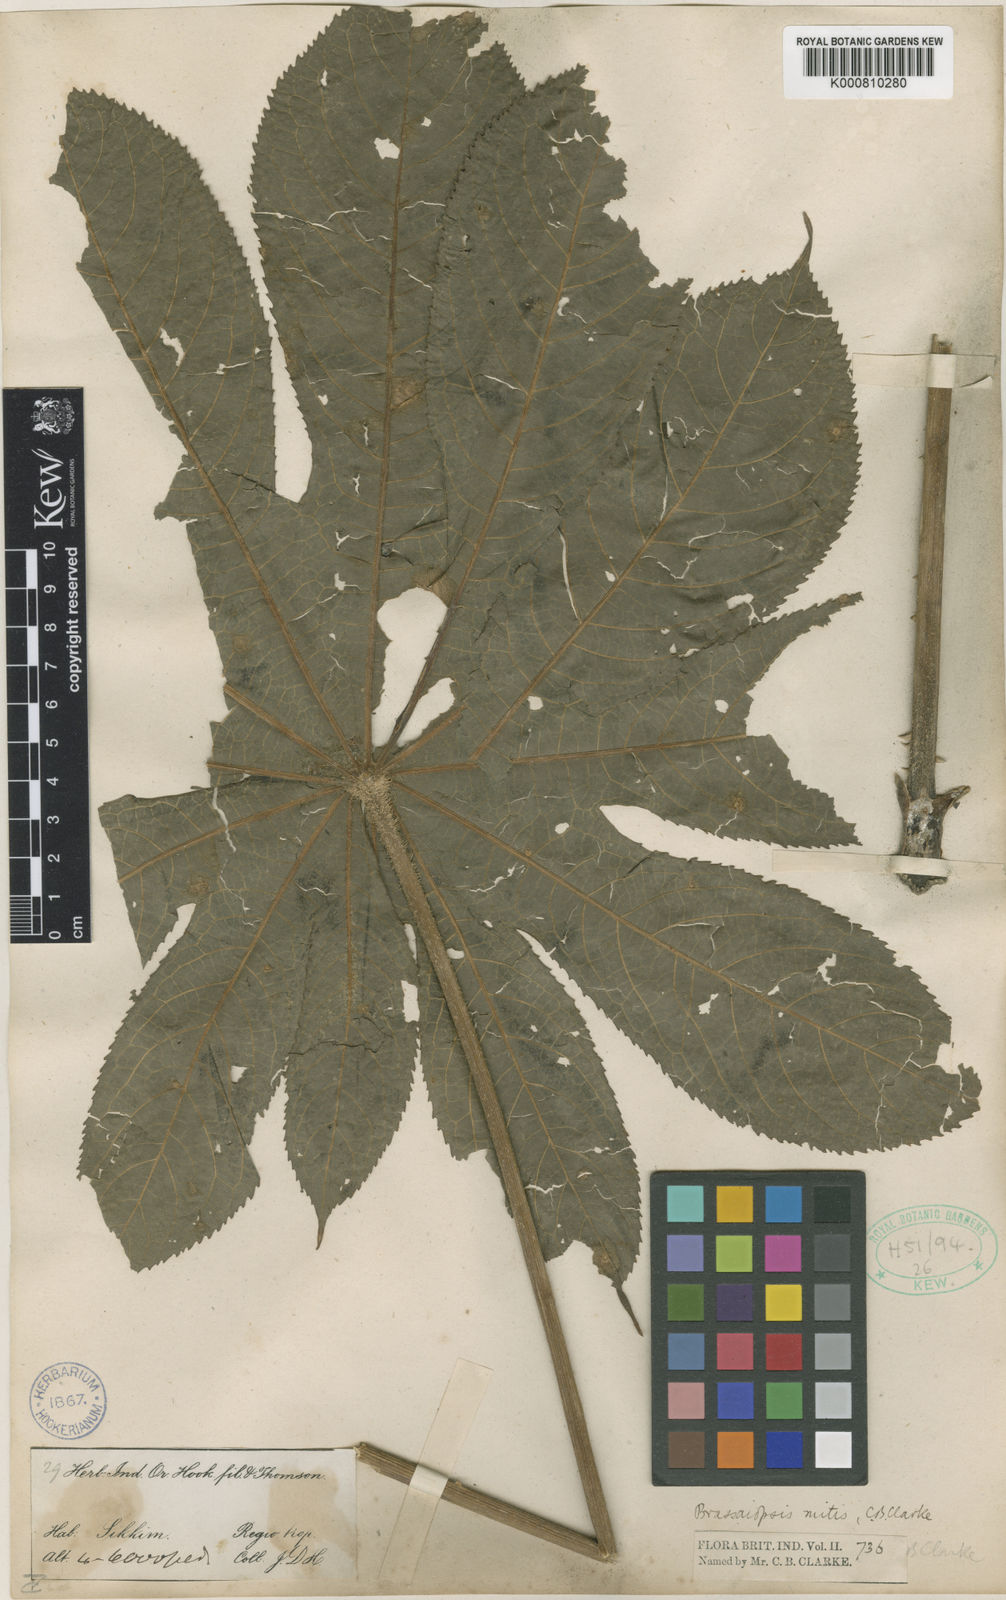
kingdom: Plantae
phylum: Tracheophyta
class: Magnoliopsida
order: Apiales
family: Araliaceae
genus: Brassaiopsis
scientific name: Brassaiopsis mitis
